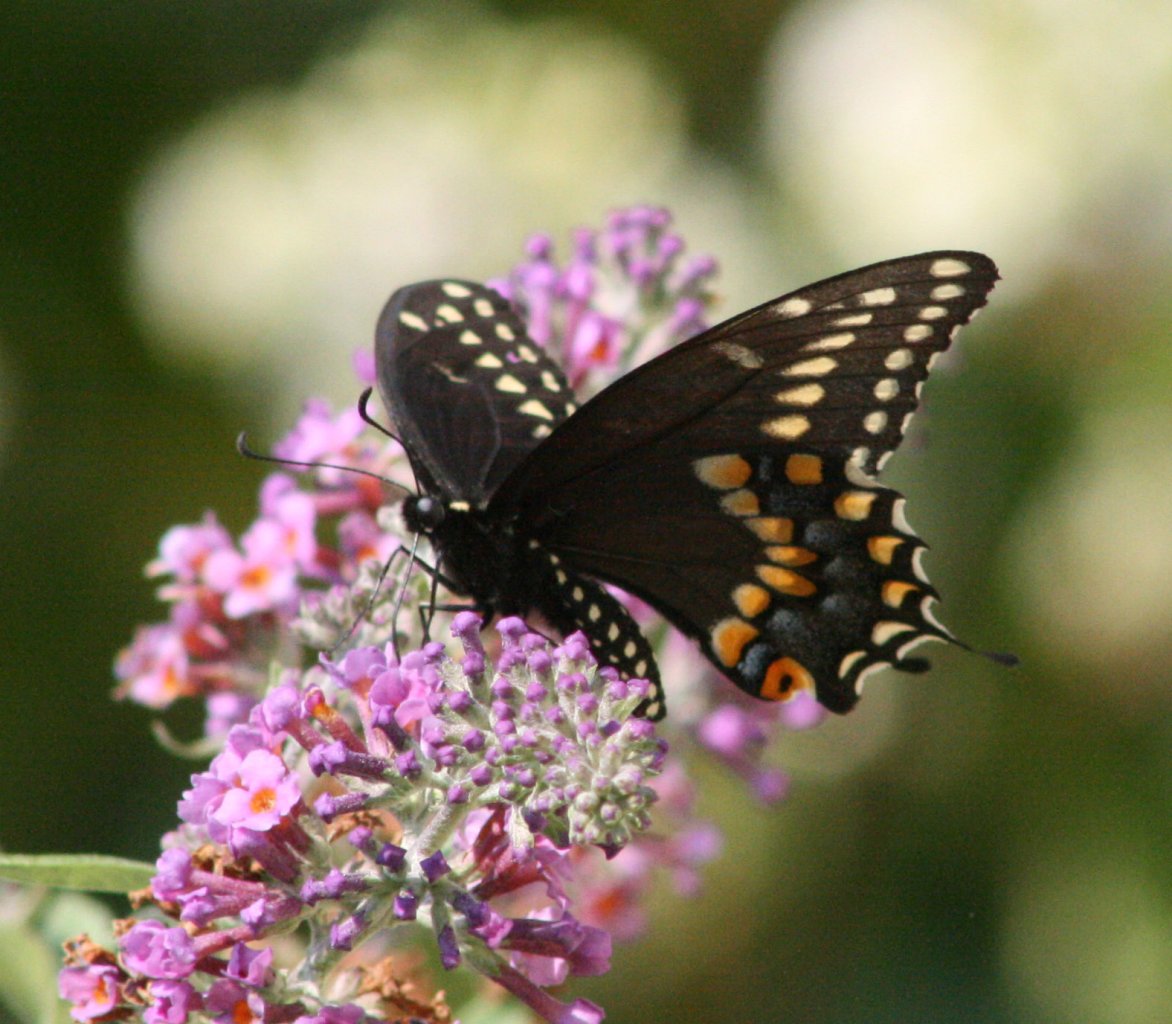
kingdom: Animalia
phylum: Arthropoda
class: Insecta
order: Lepidoptera
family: Papilionidae
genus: Papilio
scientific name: Papilio polyxenes
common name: Black Swallowtail
